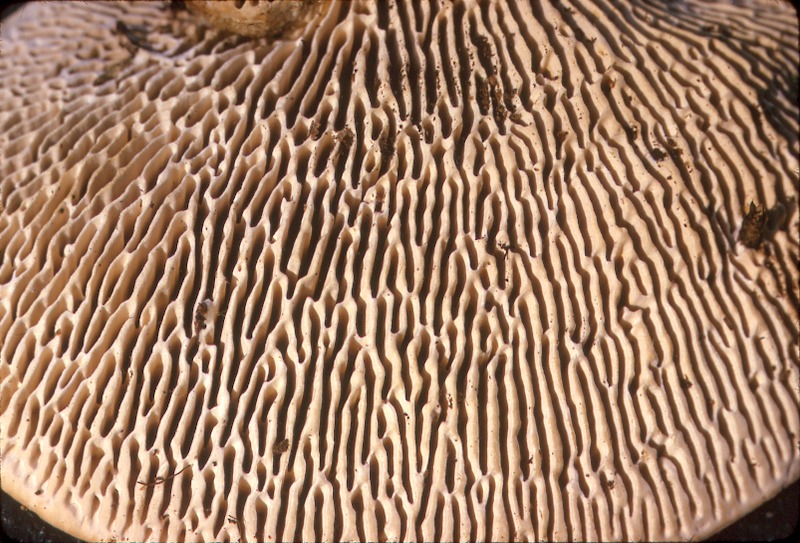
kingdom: Fungi
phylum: Basidiomycota
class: Agaricomycetes
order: Polyporales
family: Fomitopsidaceae
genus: Daedalea
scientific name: Daedalea quercina
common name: Oak mazegill
